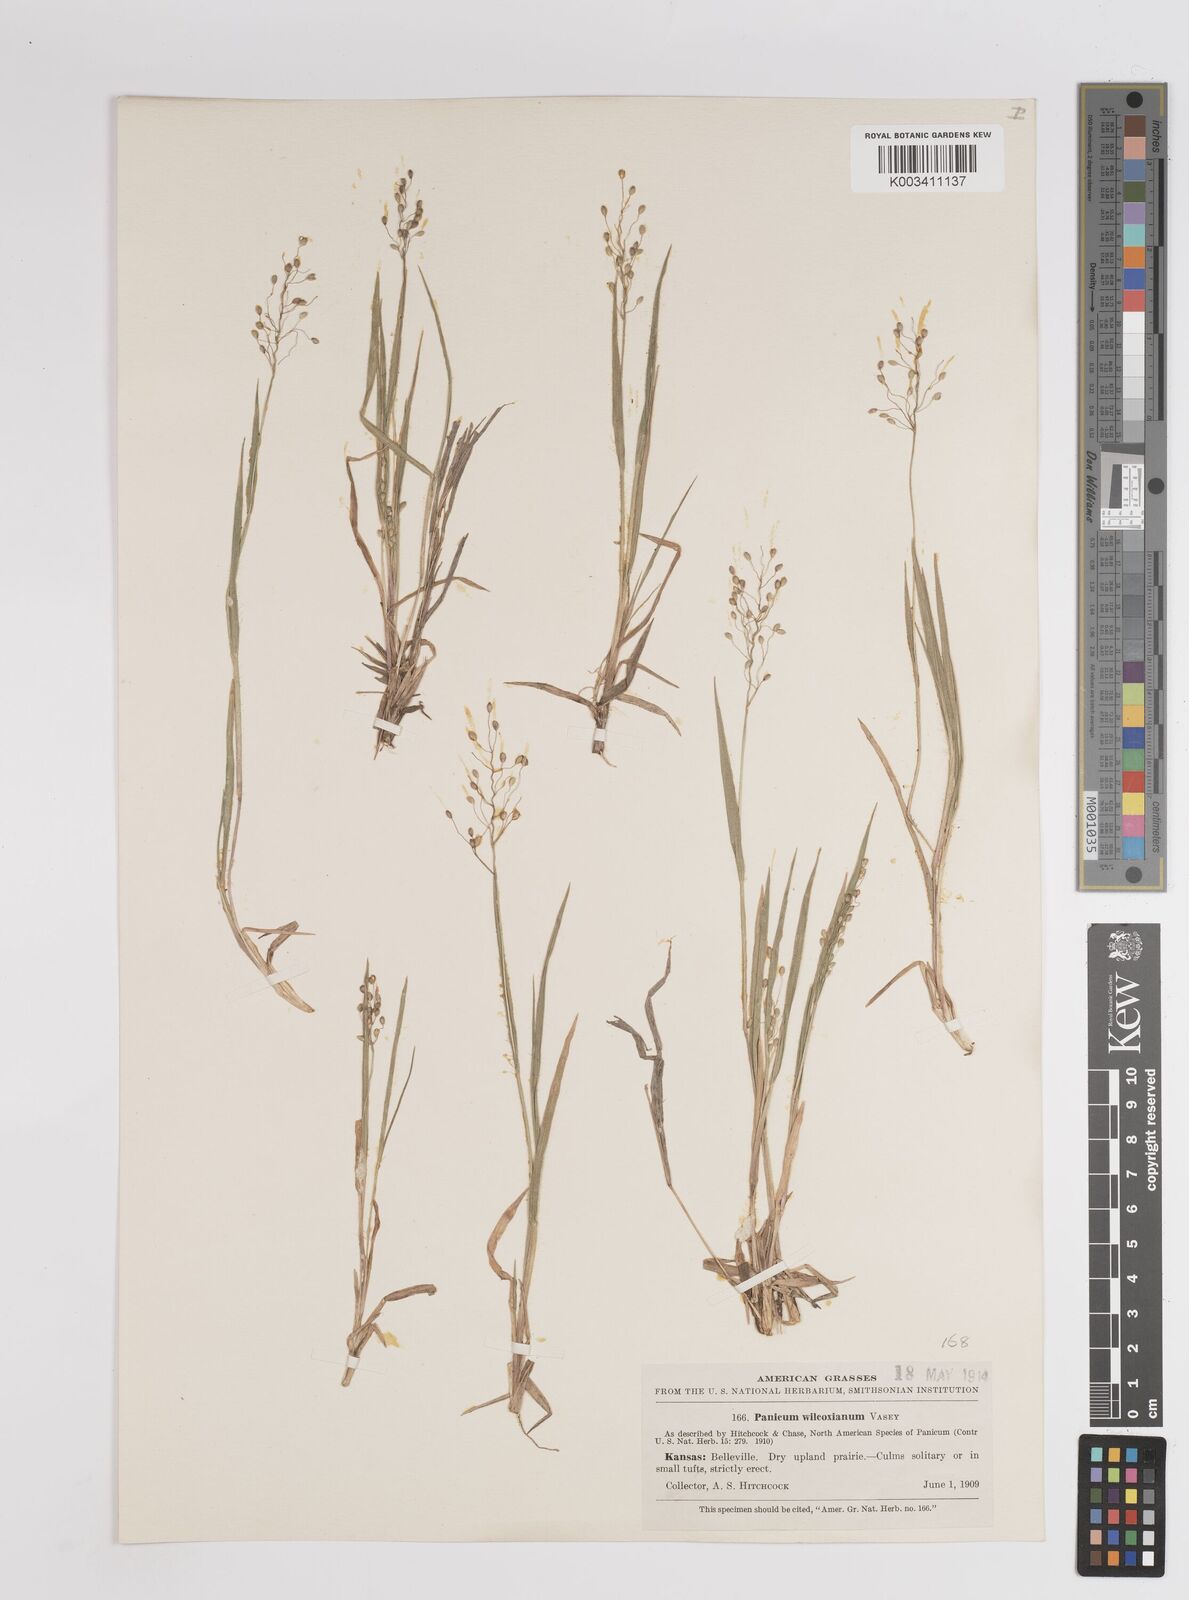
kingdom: Plantae
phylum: Tracheophyta
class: Liliopsida
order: Poales
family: Poaceae
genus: Dichanthelium
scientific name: Dichanthelium wilcoxianum
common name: Wilcox's panicgrass
